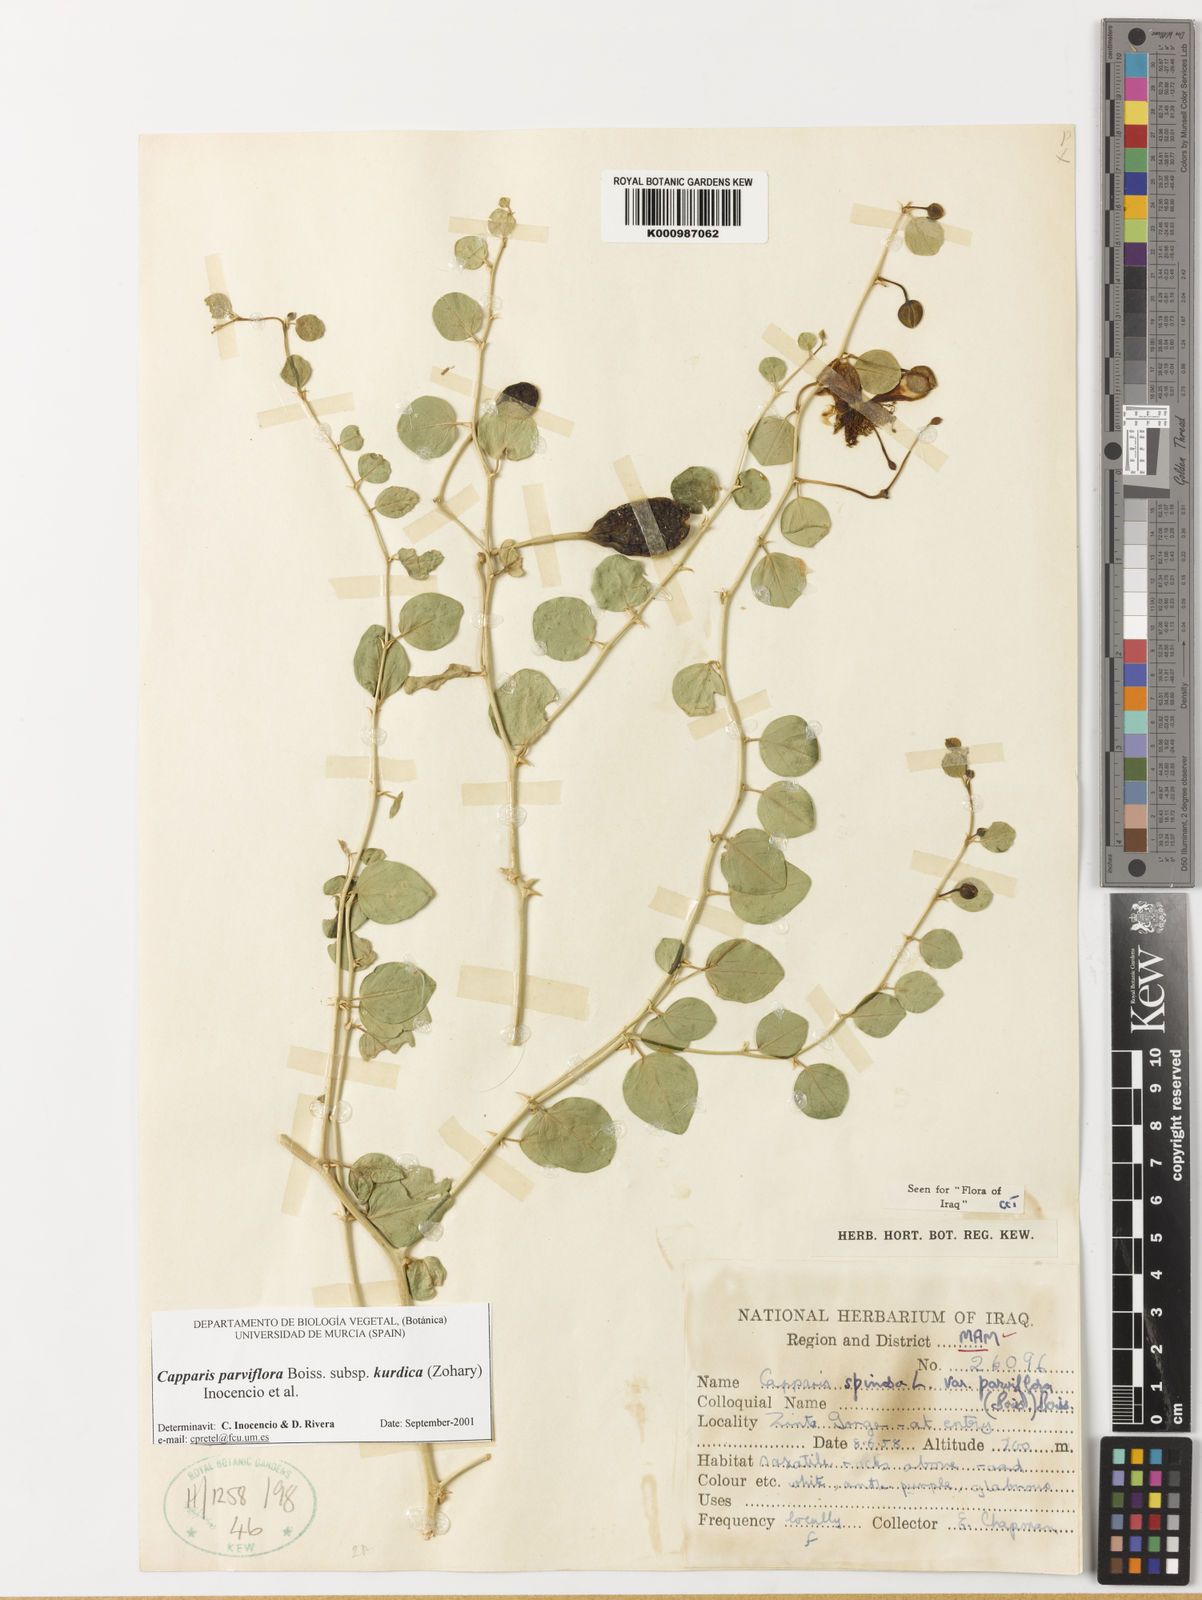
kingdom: Plantae
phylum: Tracheophyta
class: Magnoliopsida
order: Brassicales
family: Capparaceae
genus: Capparis
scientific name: Capparis spinosa
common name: Caper
